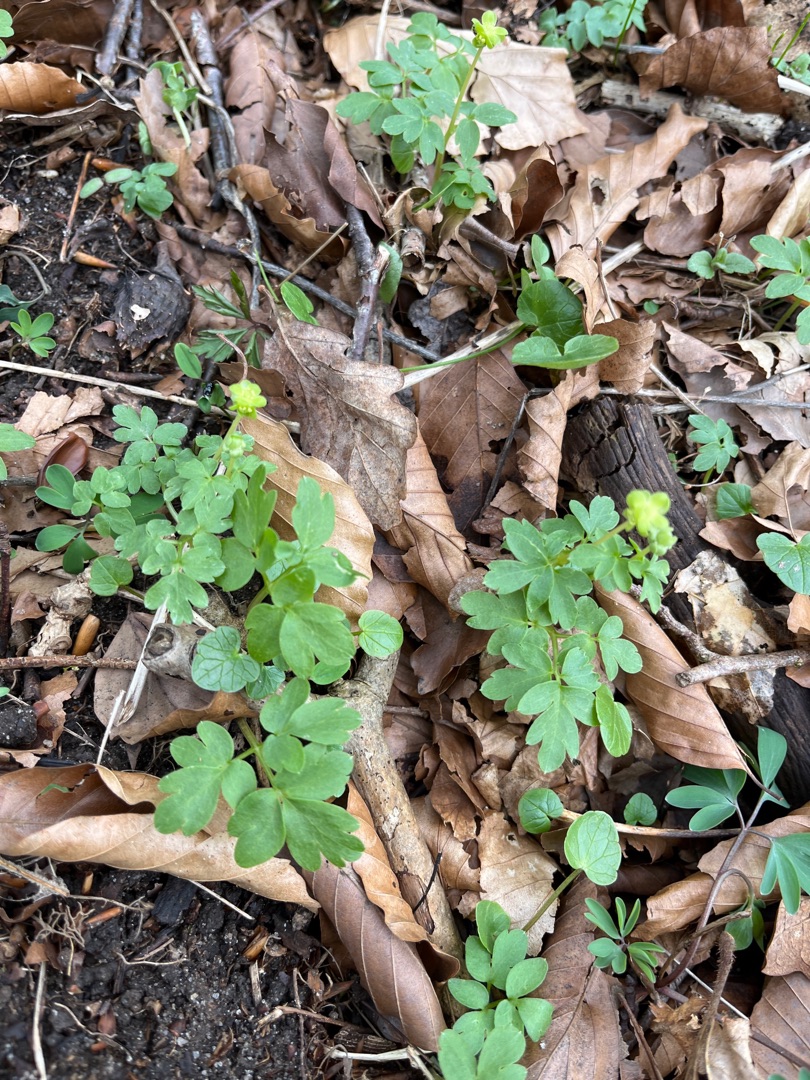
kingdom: Plantae
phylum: Tracheophyta
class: Magnoliopsida
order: Dipsacales
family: Viburnaceae
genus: Adoxa
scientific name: Adoxa moschatellina
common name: Desmerurt
